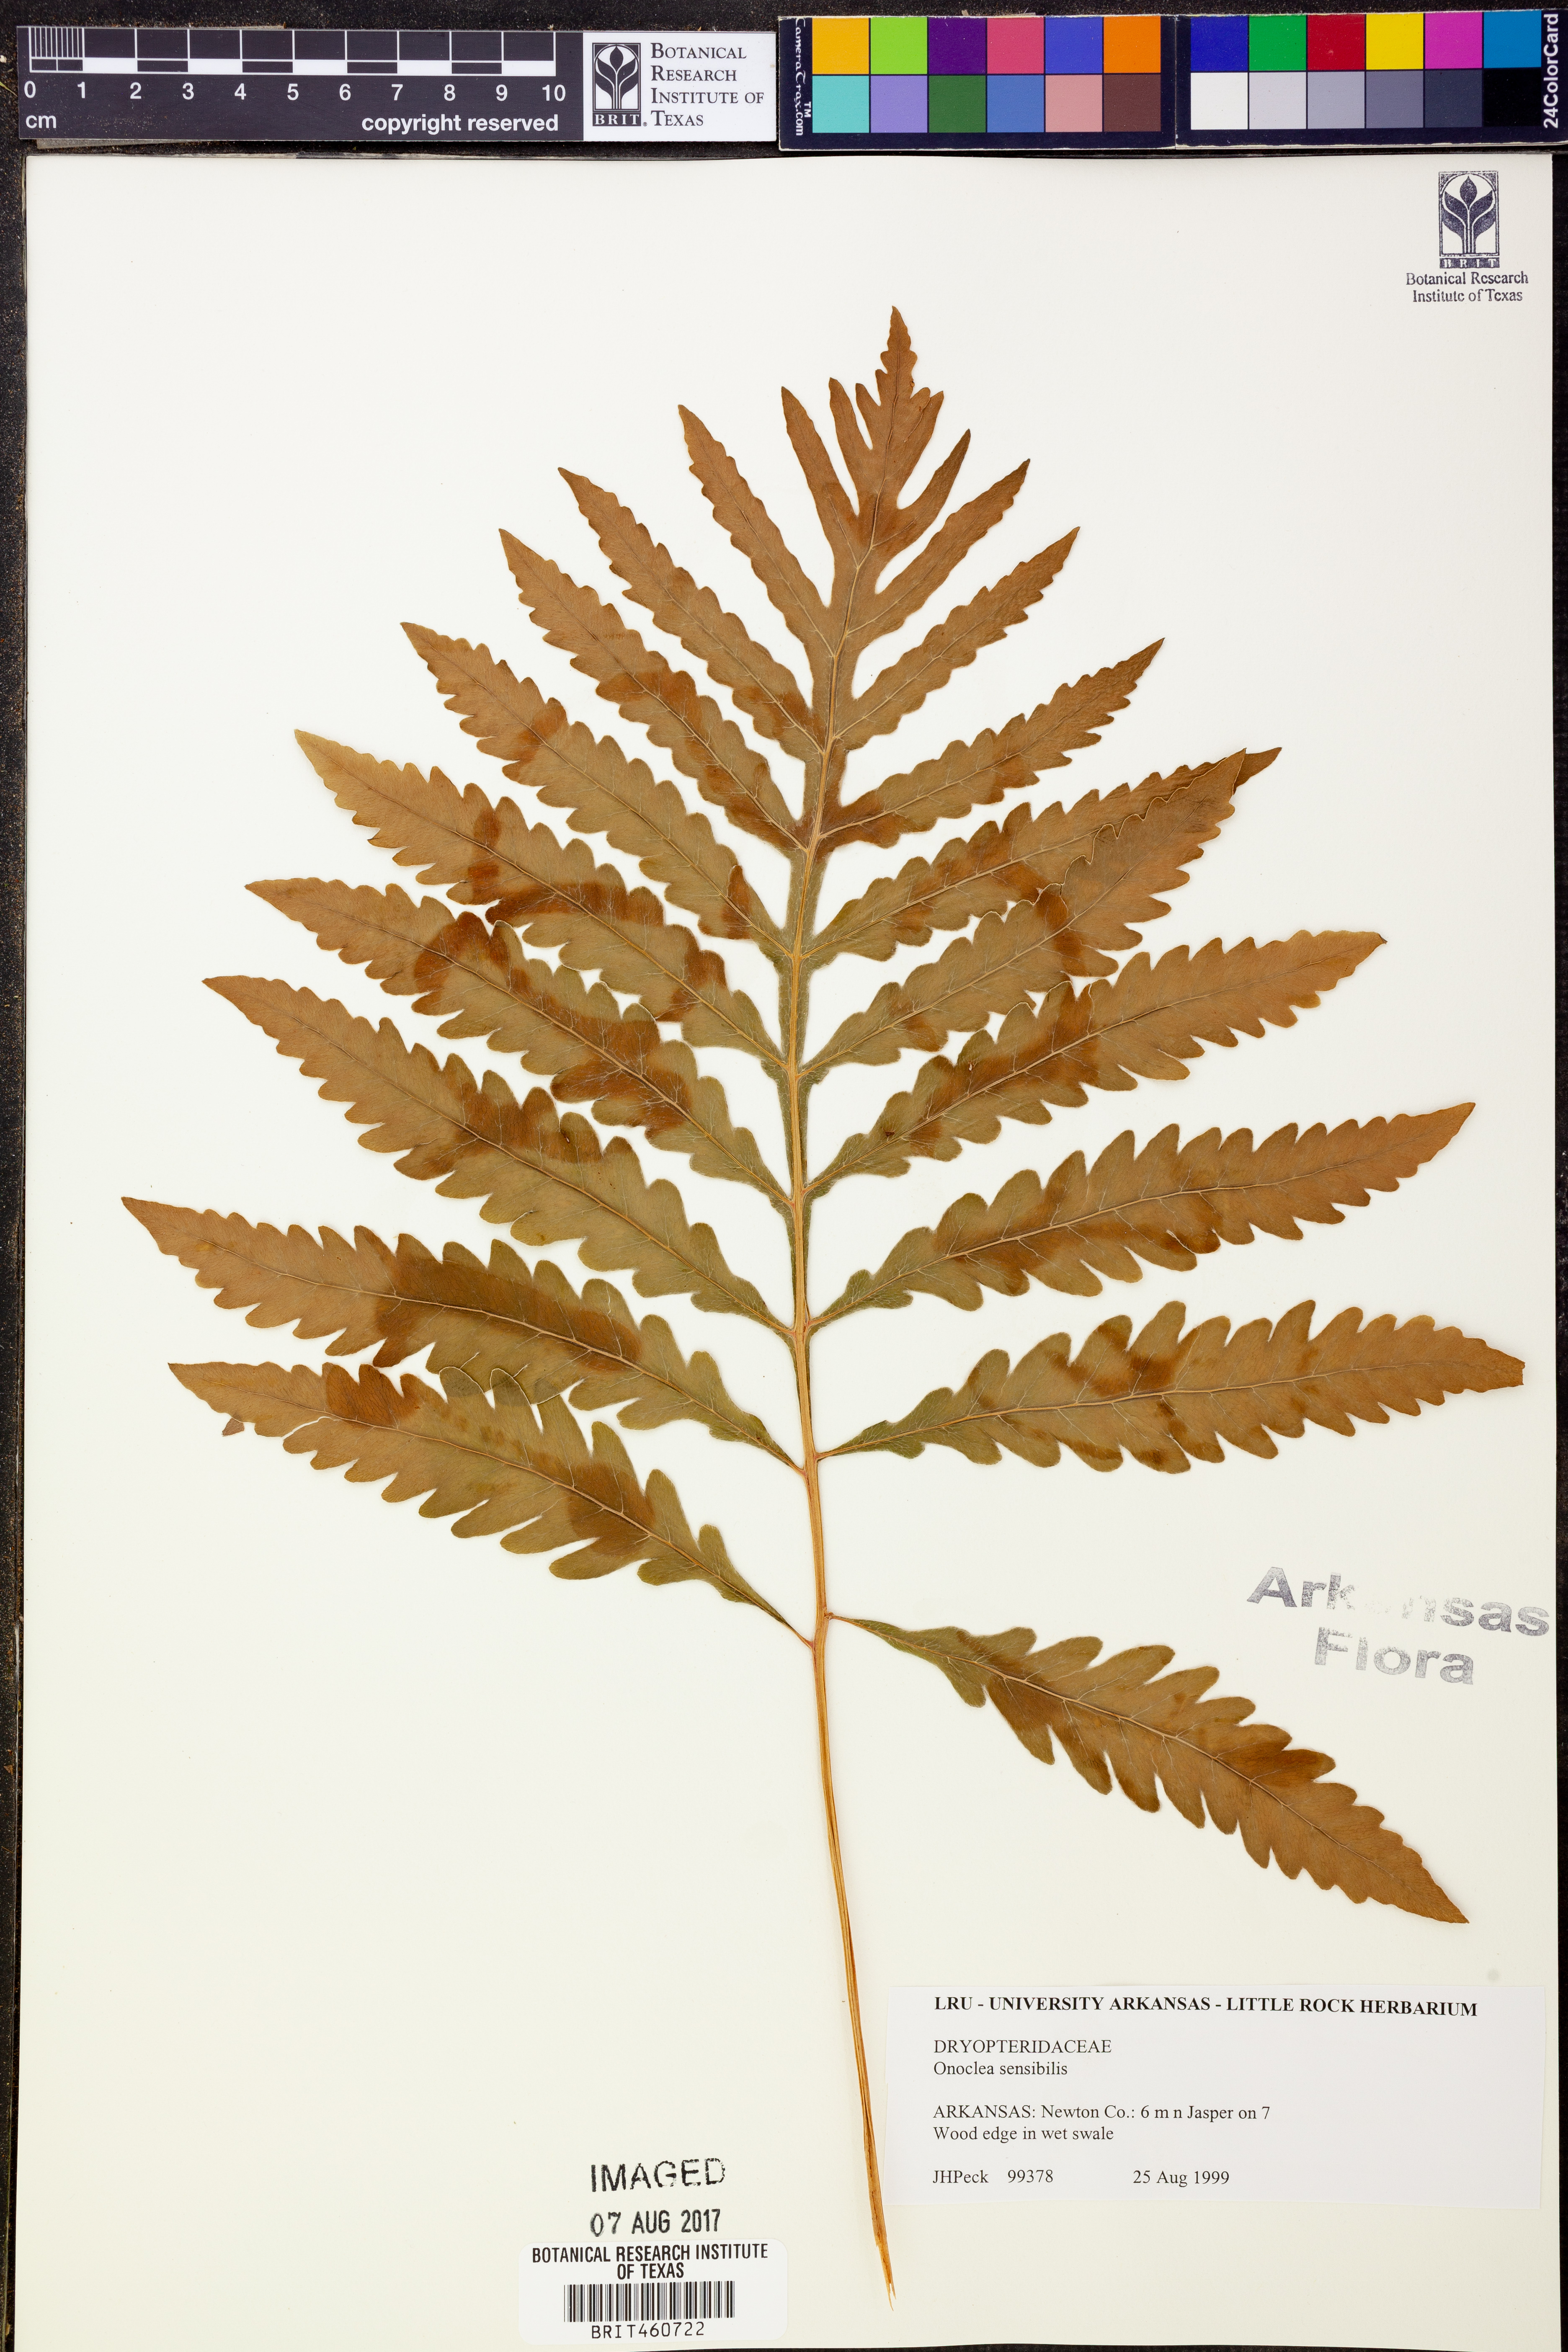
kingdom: Plantae
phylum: Tracheophyta
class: Polypodiopsida
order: Polypodiales
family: Onocleaceae
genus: Onoclea
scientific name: Onoclea sensibilis
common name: Sensitive fern
